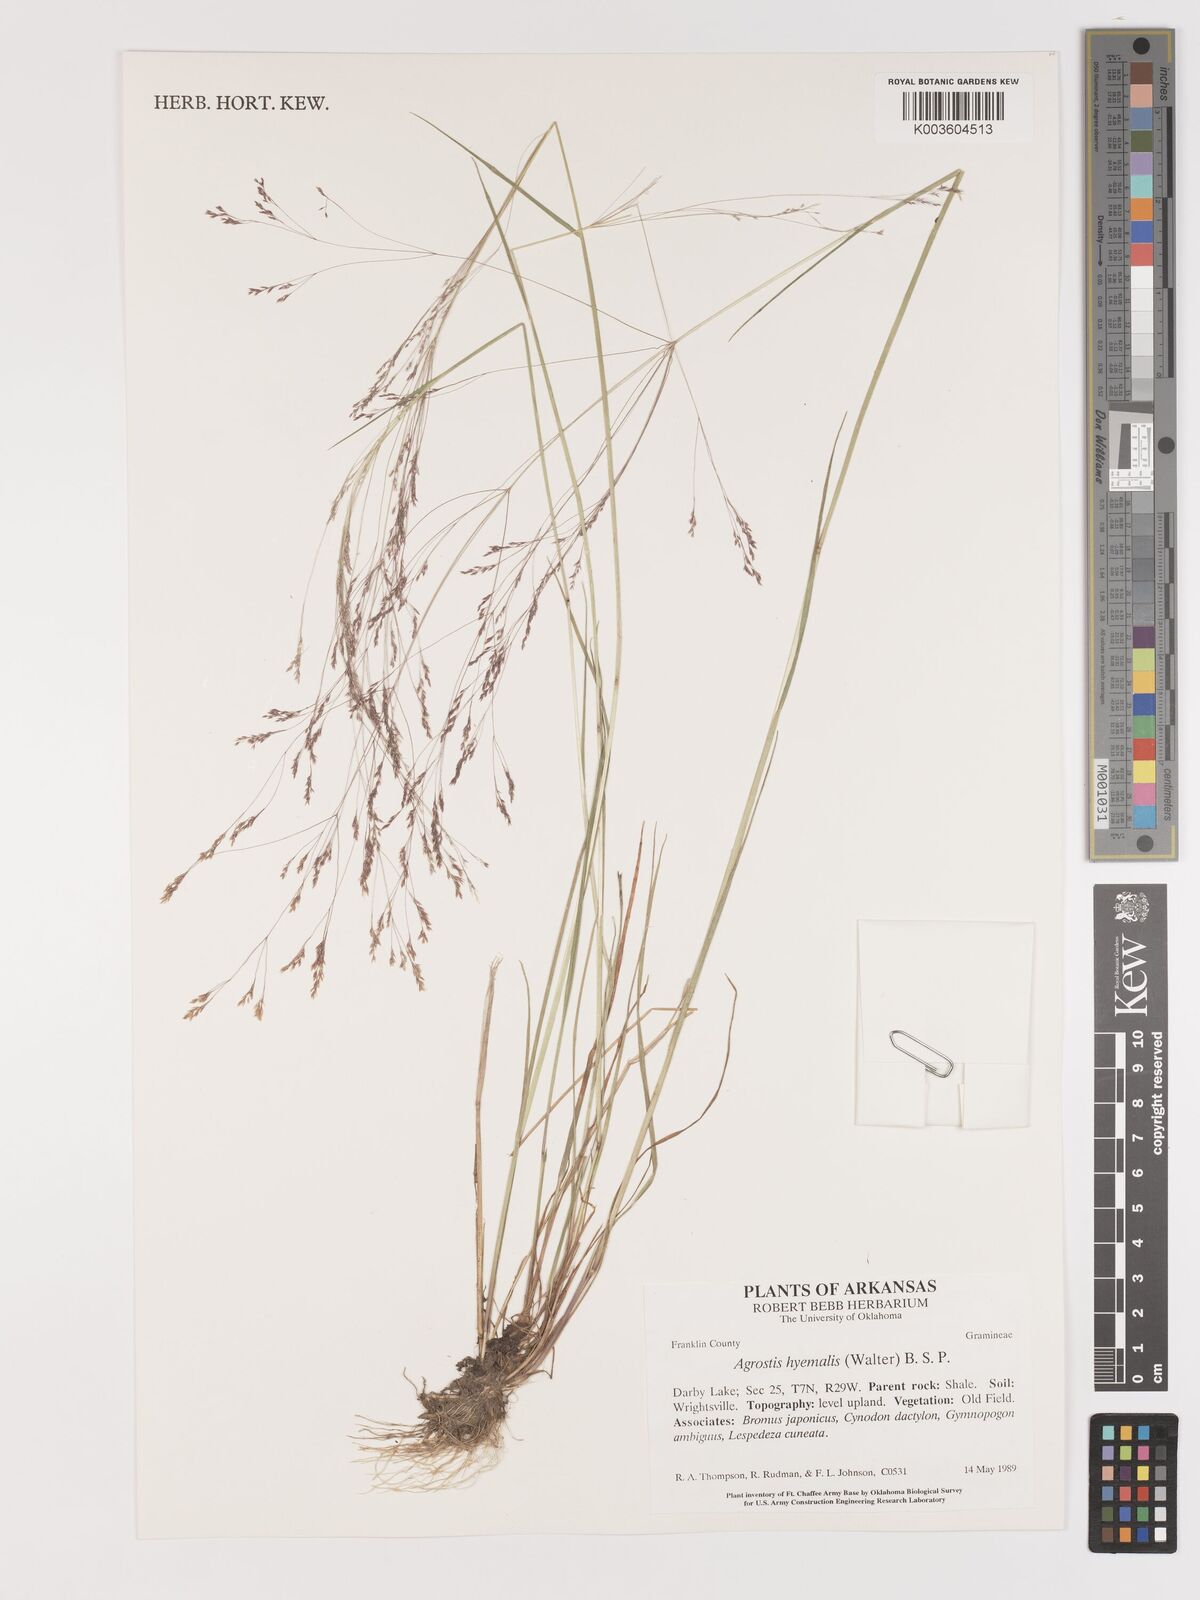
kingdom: Plantae
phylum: Tracheophyta
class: Liliopsida
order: Poales
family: Poaceae
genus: Agrostis
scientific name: Agrostis hyemalis
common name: Small bent
